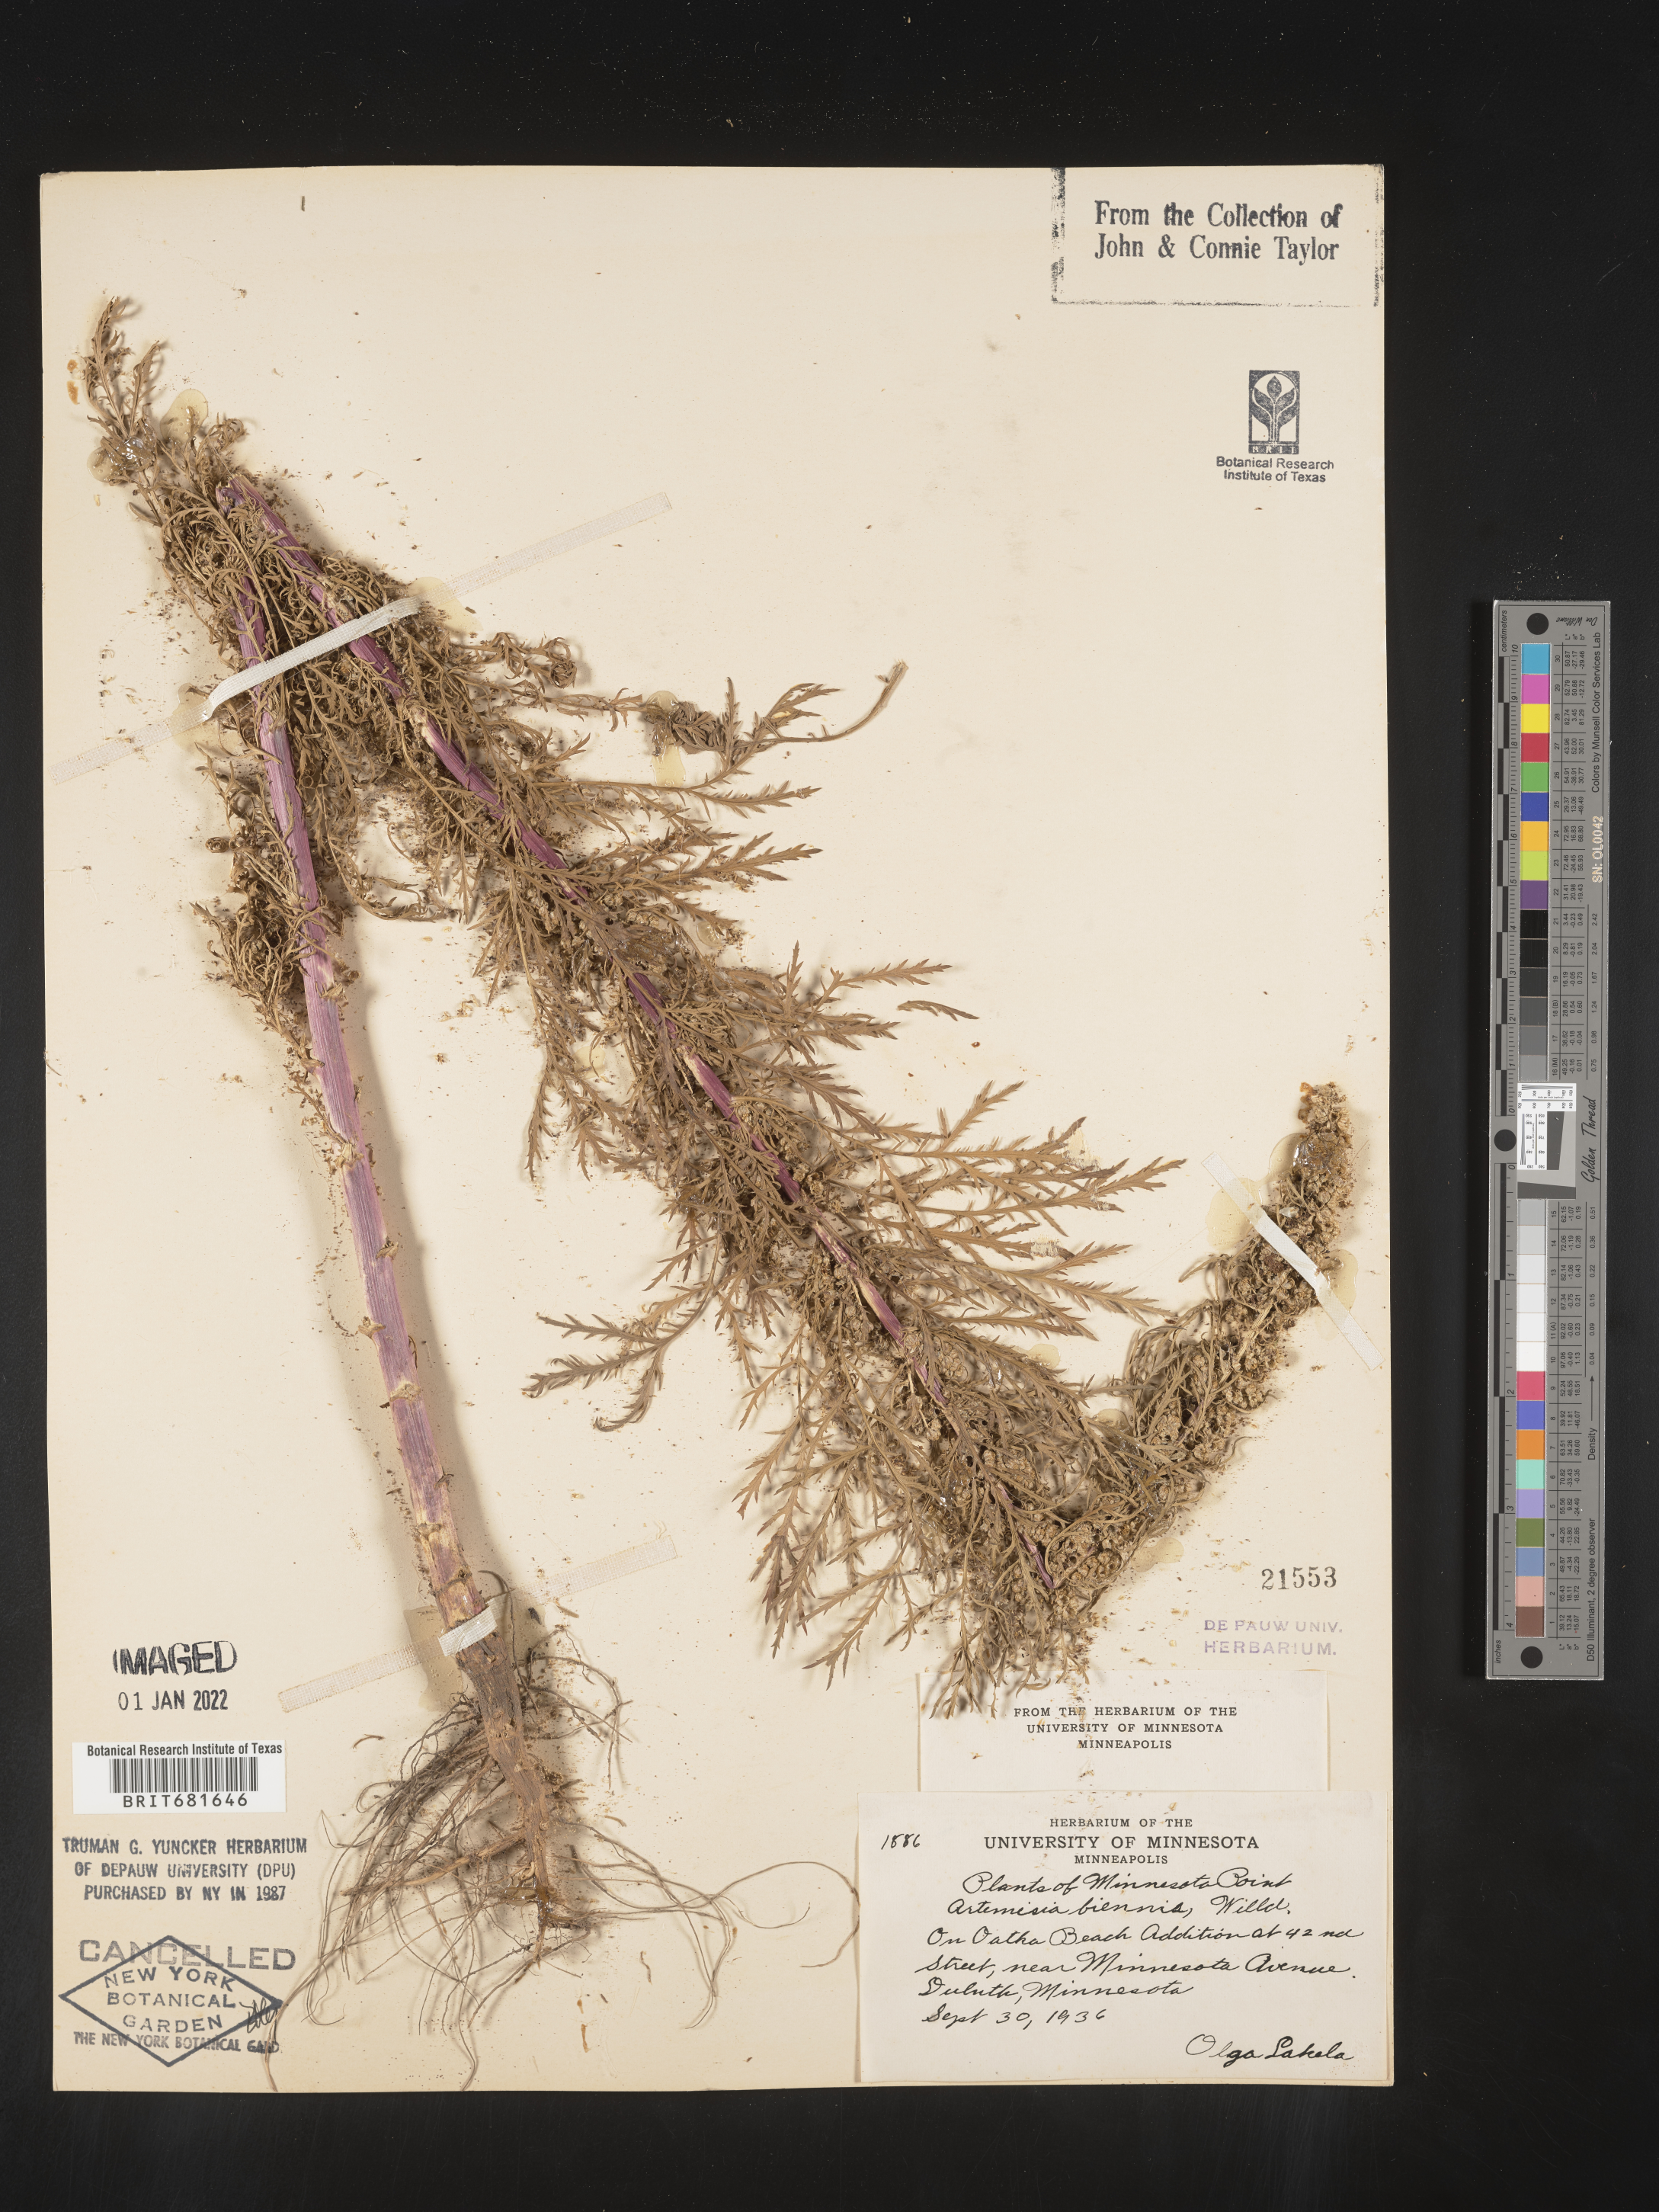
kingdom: Plantae
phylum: Tracheophyta
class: Magnoliopsida
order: Asterales
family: Asteraceae
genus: Artemisia
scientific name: Artemisia biennis
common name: Biennial wormwood
